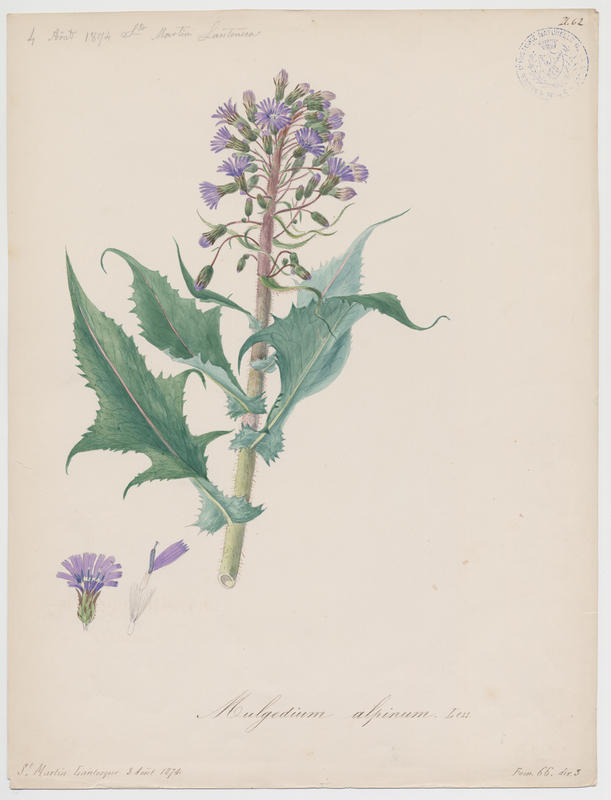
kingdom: Plantae
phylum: Tracheophyta
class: Magnoliopsida
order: Asterales
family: Asteraceae
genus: Cicerbita
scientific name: Cicerbita
